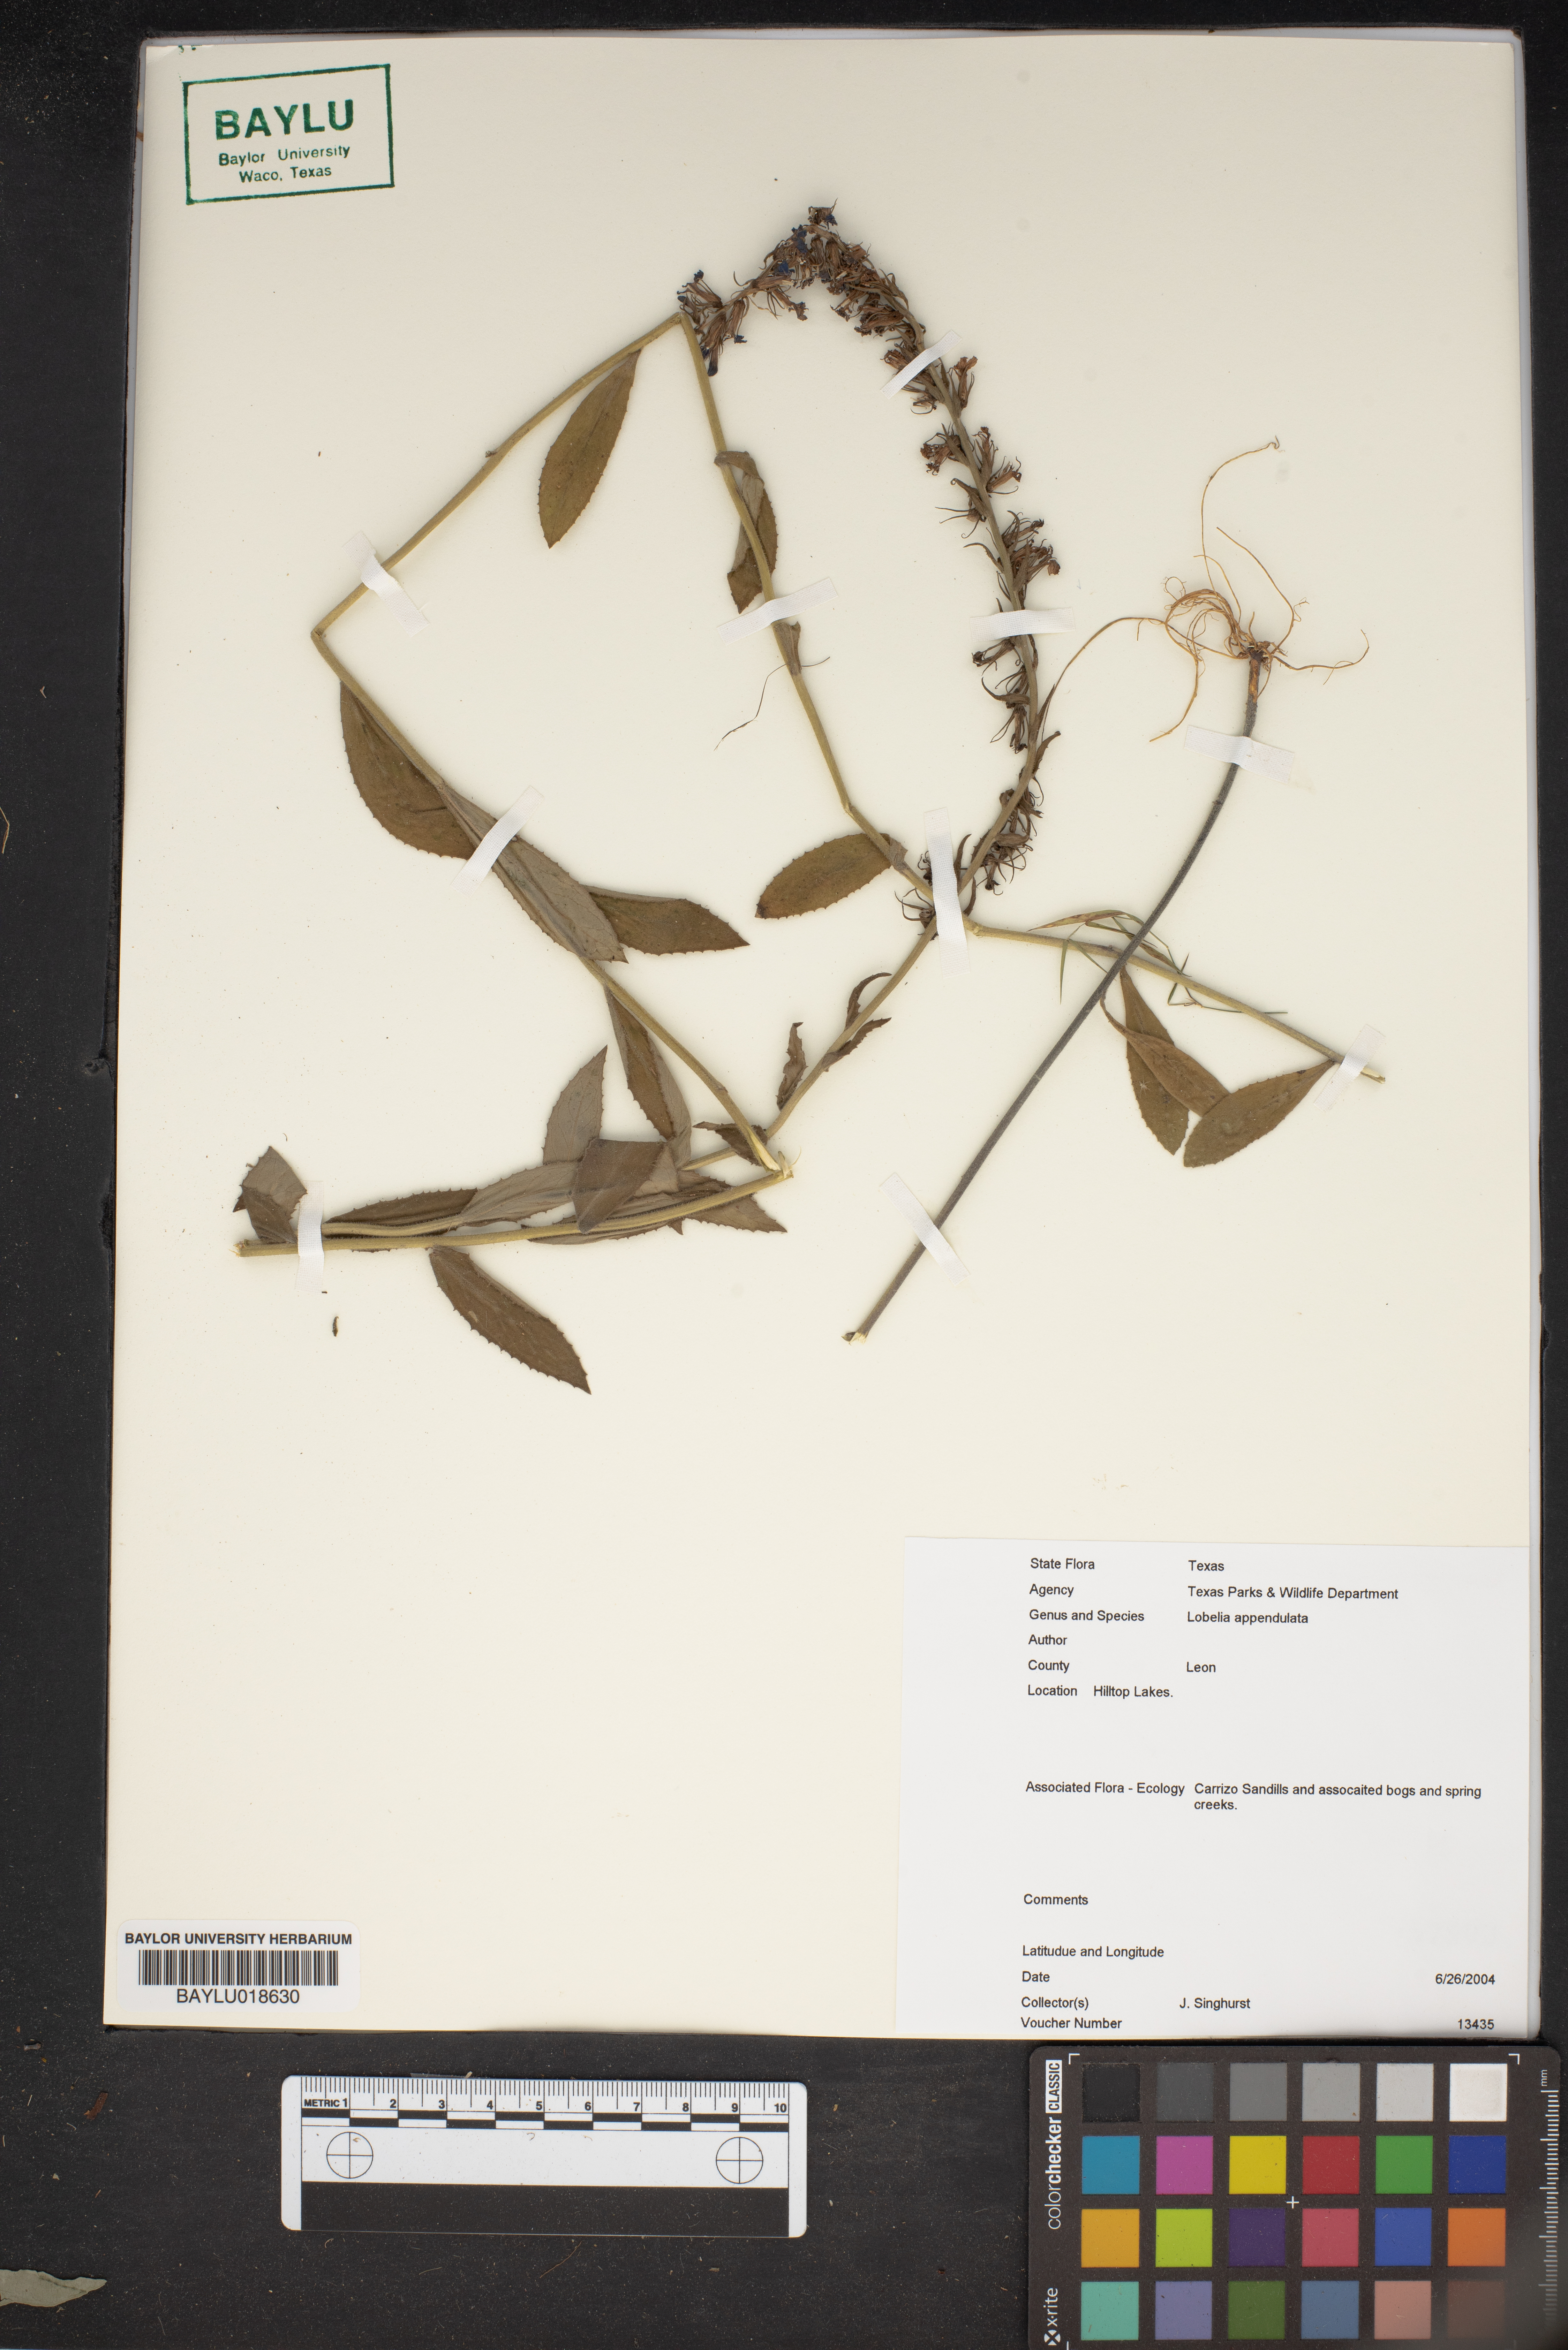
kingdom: Plantae
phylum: Tracheophyta
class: Magnoliopsida
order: Asterales
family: Campanulaceae
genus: Lobelia
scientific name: Lobelia appendiculata
